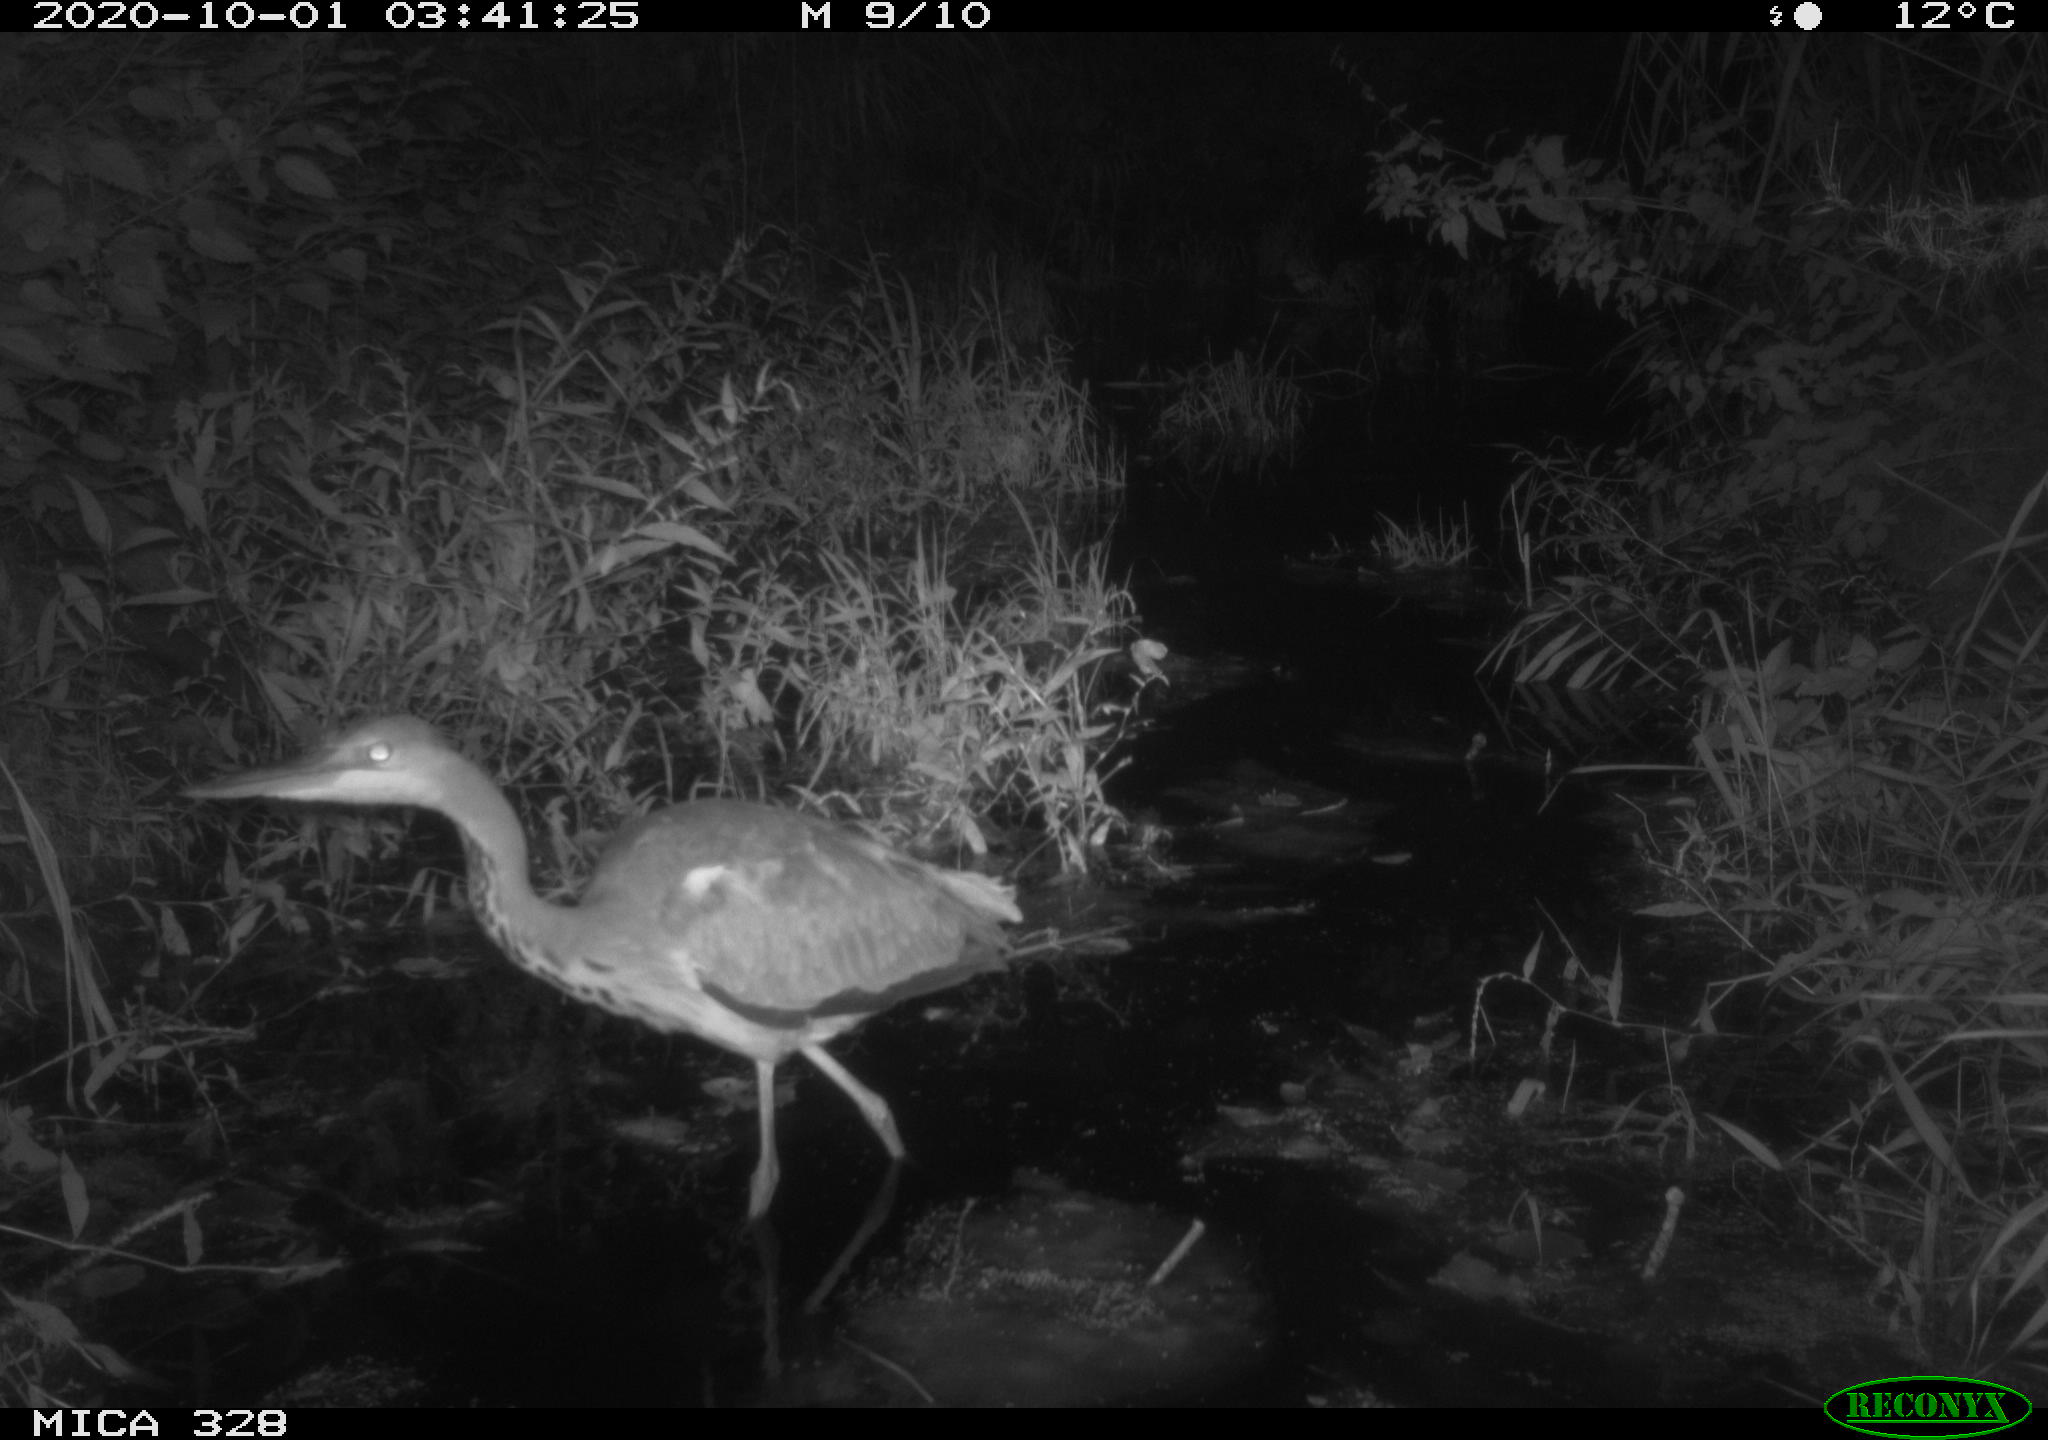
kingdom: Animalia
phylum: Chordata
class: Aves
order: Pelecaniformes
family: Ardeidae
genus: Ardea
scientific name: Ardea cinerea
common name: Grey heron
